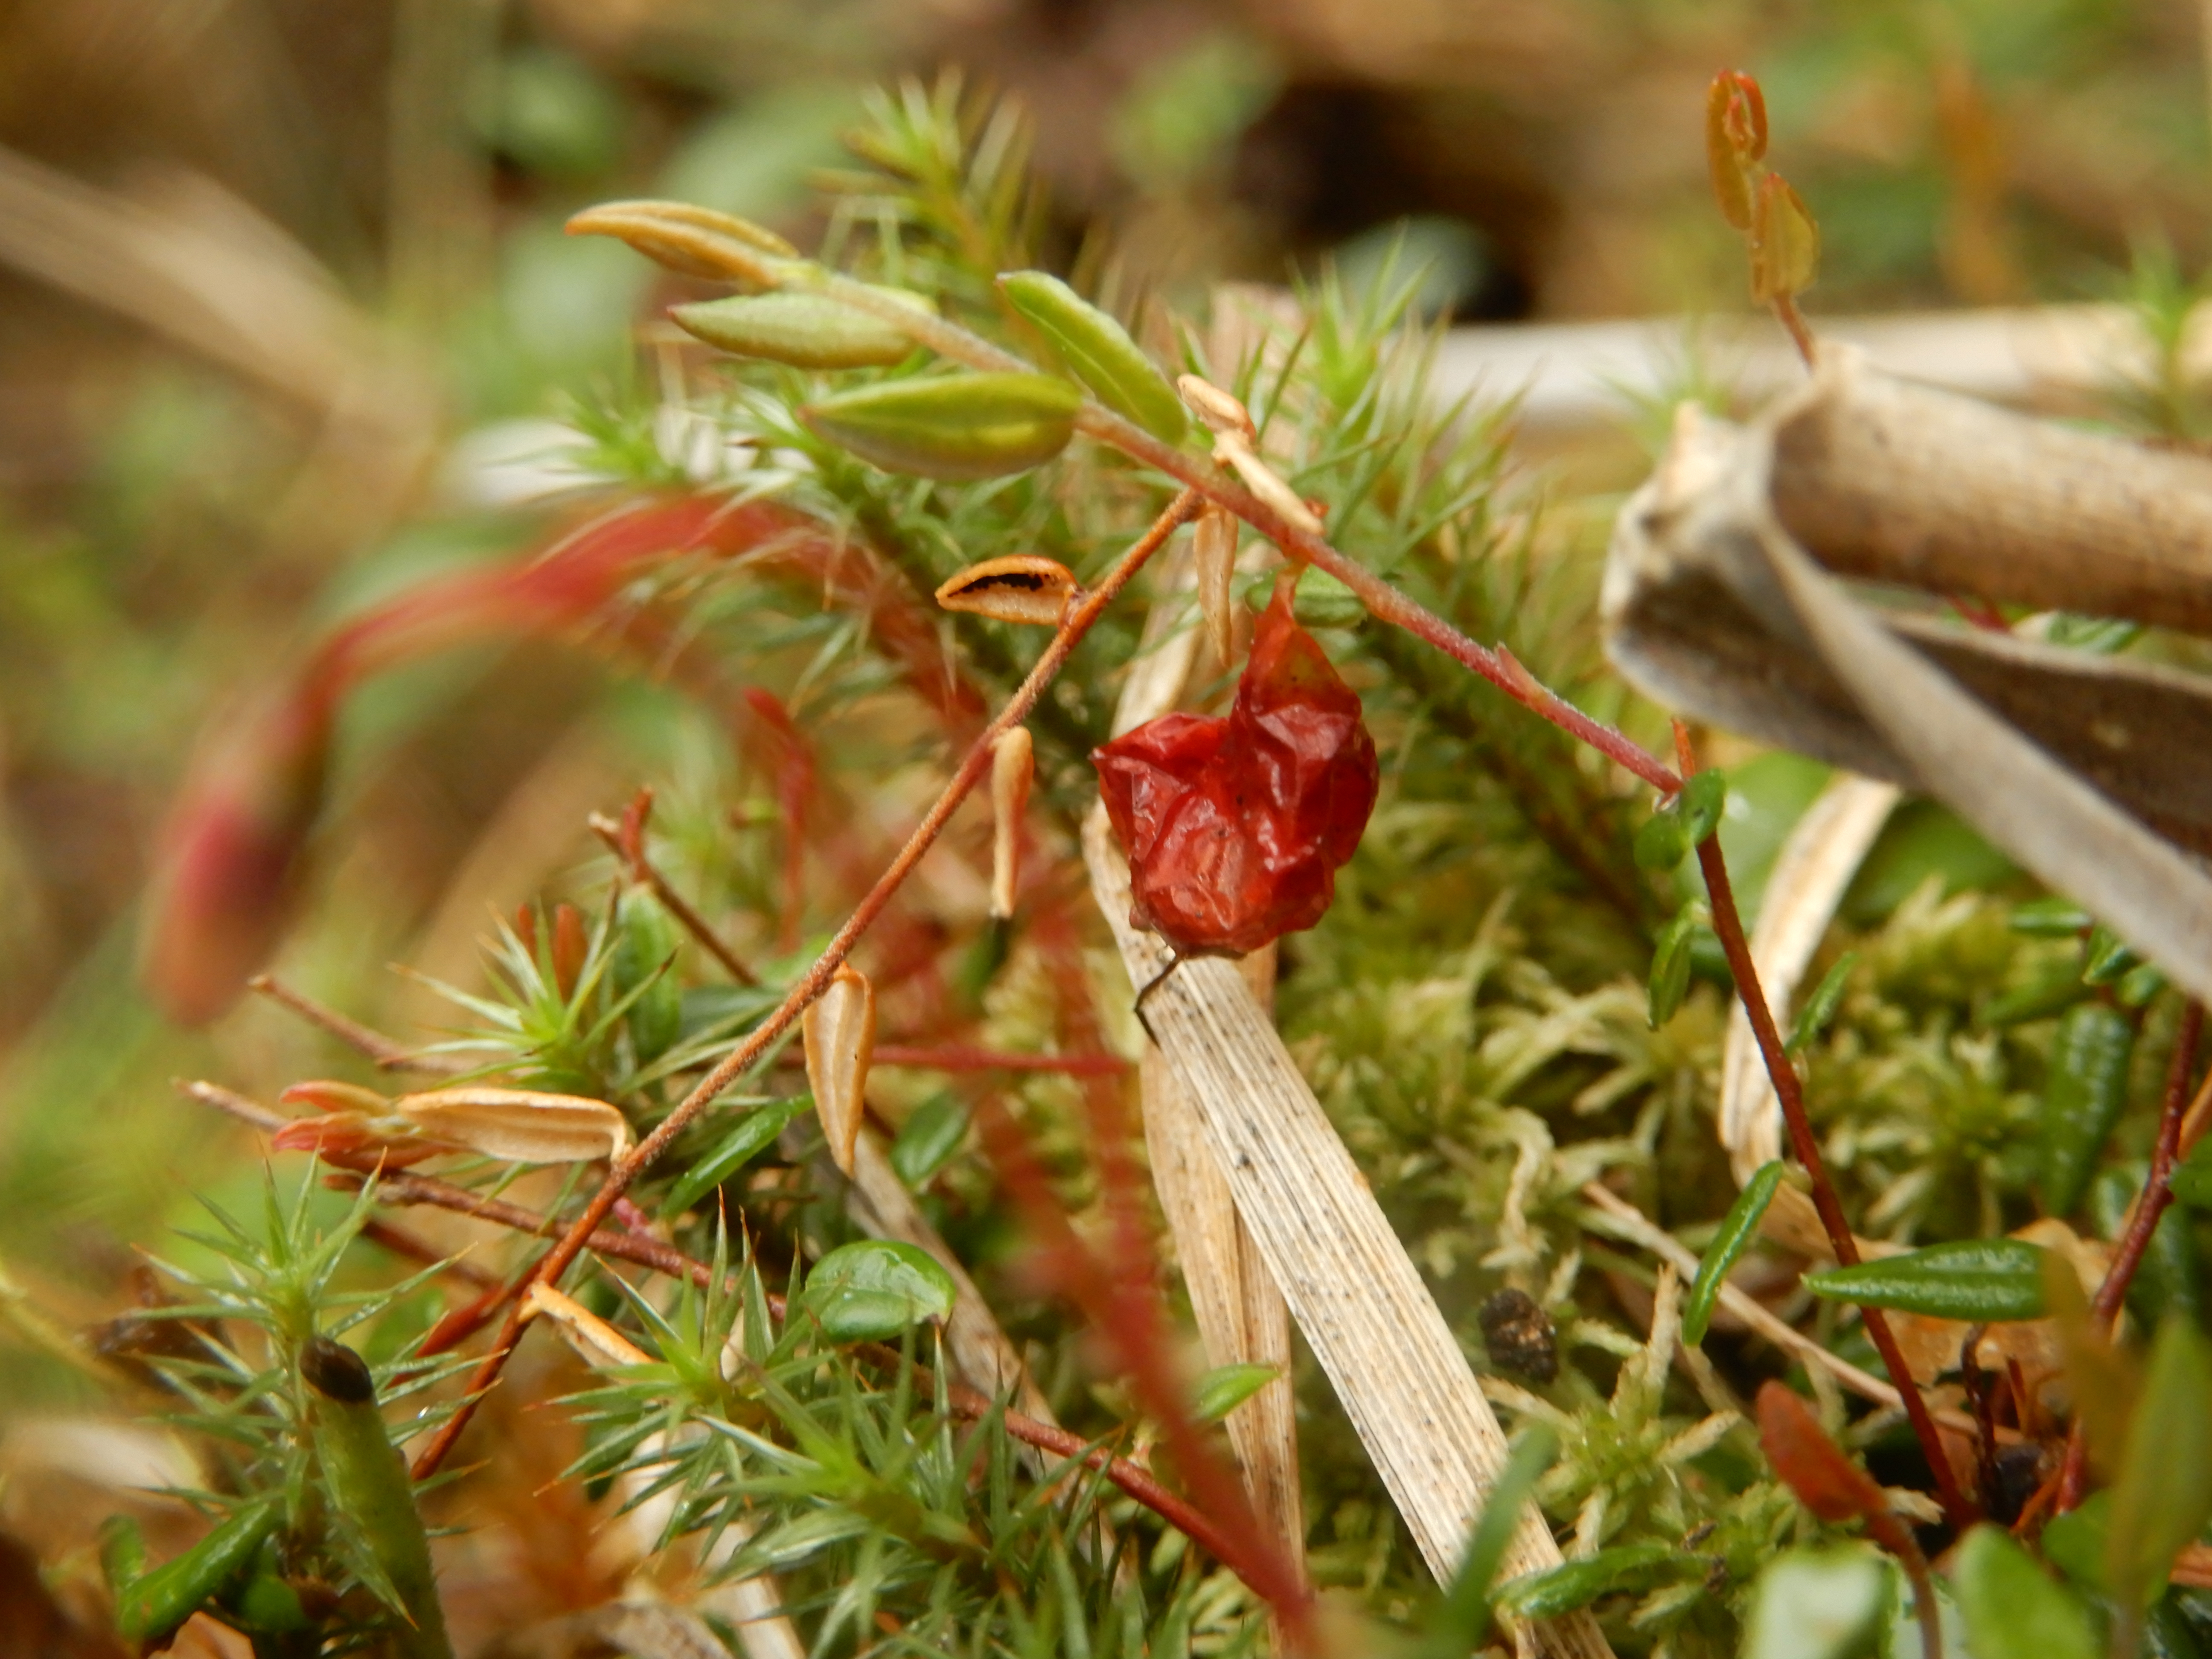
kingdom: Plantae
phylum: Tracheophyta
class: Magnoliopsida
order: Ericales
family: Ericaceae
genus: Vaccinium
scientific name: Vaccinium microcarpum
